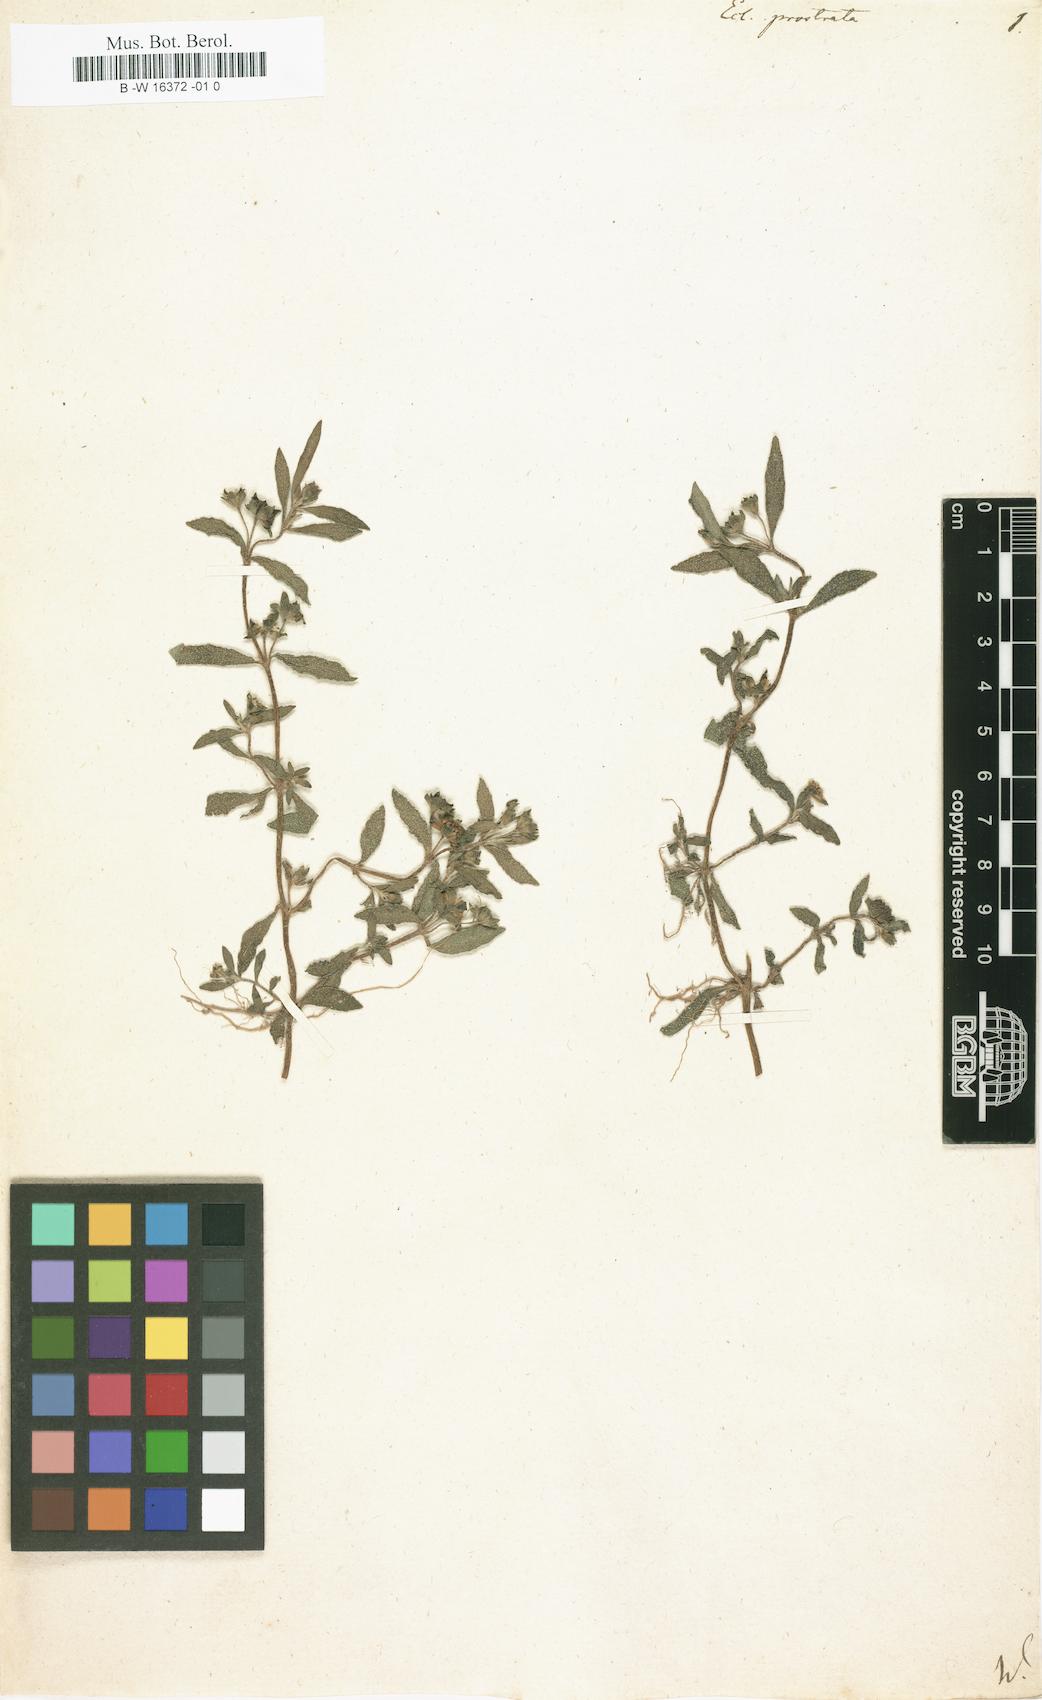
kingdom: Plantae
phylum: Tracheophyta
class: Magnoliopsida
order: Asterales
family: Asteraceae
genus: Eclipta
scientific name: Eclipta prostrata
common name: False daisy
